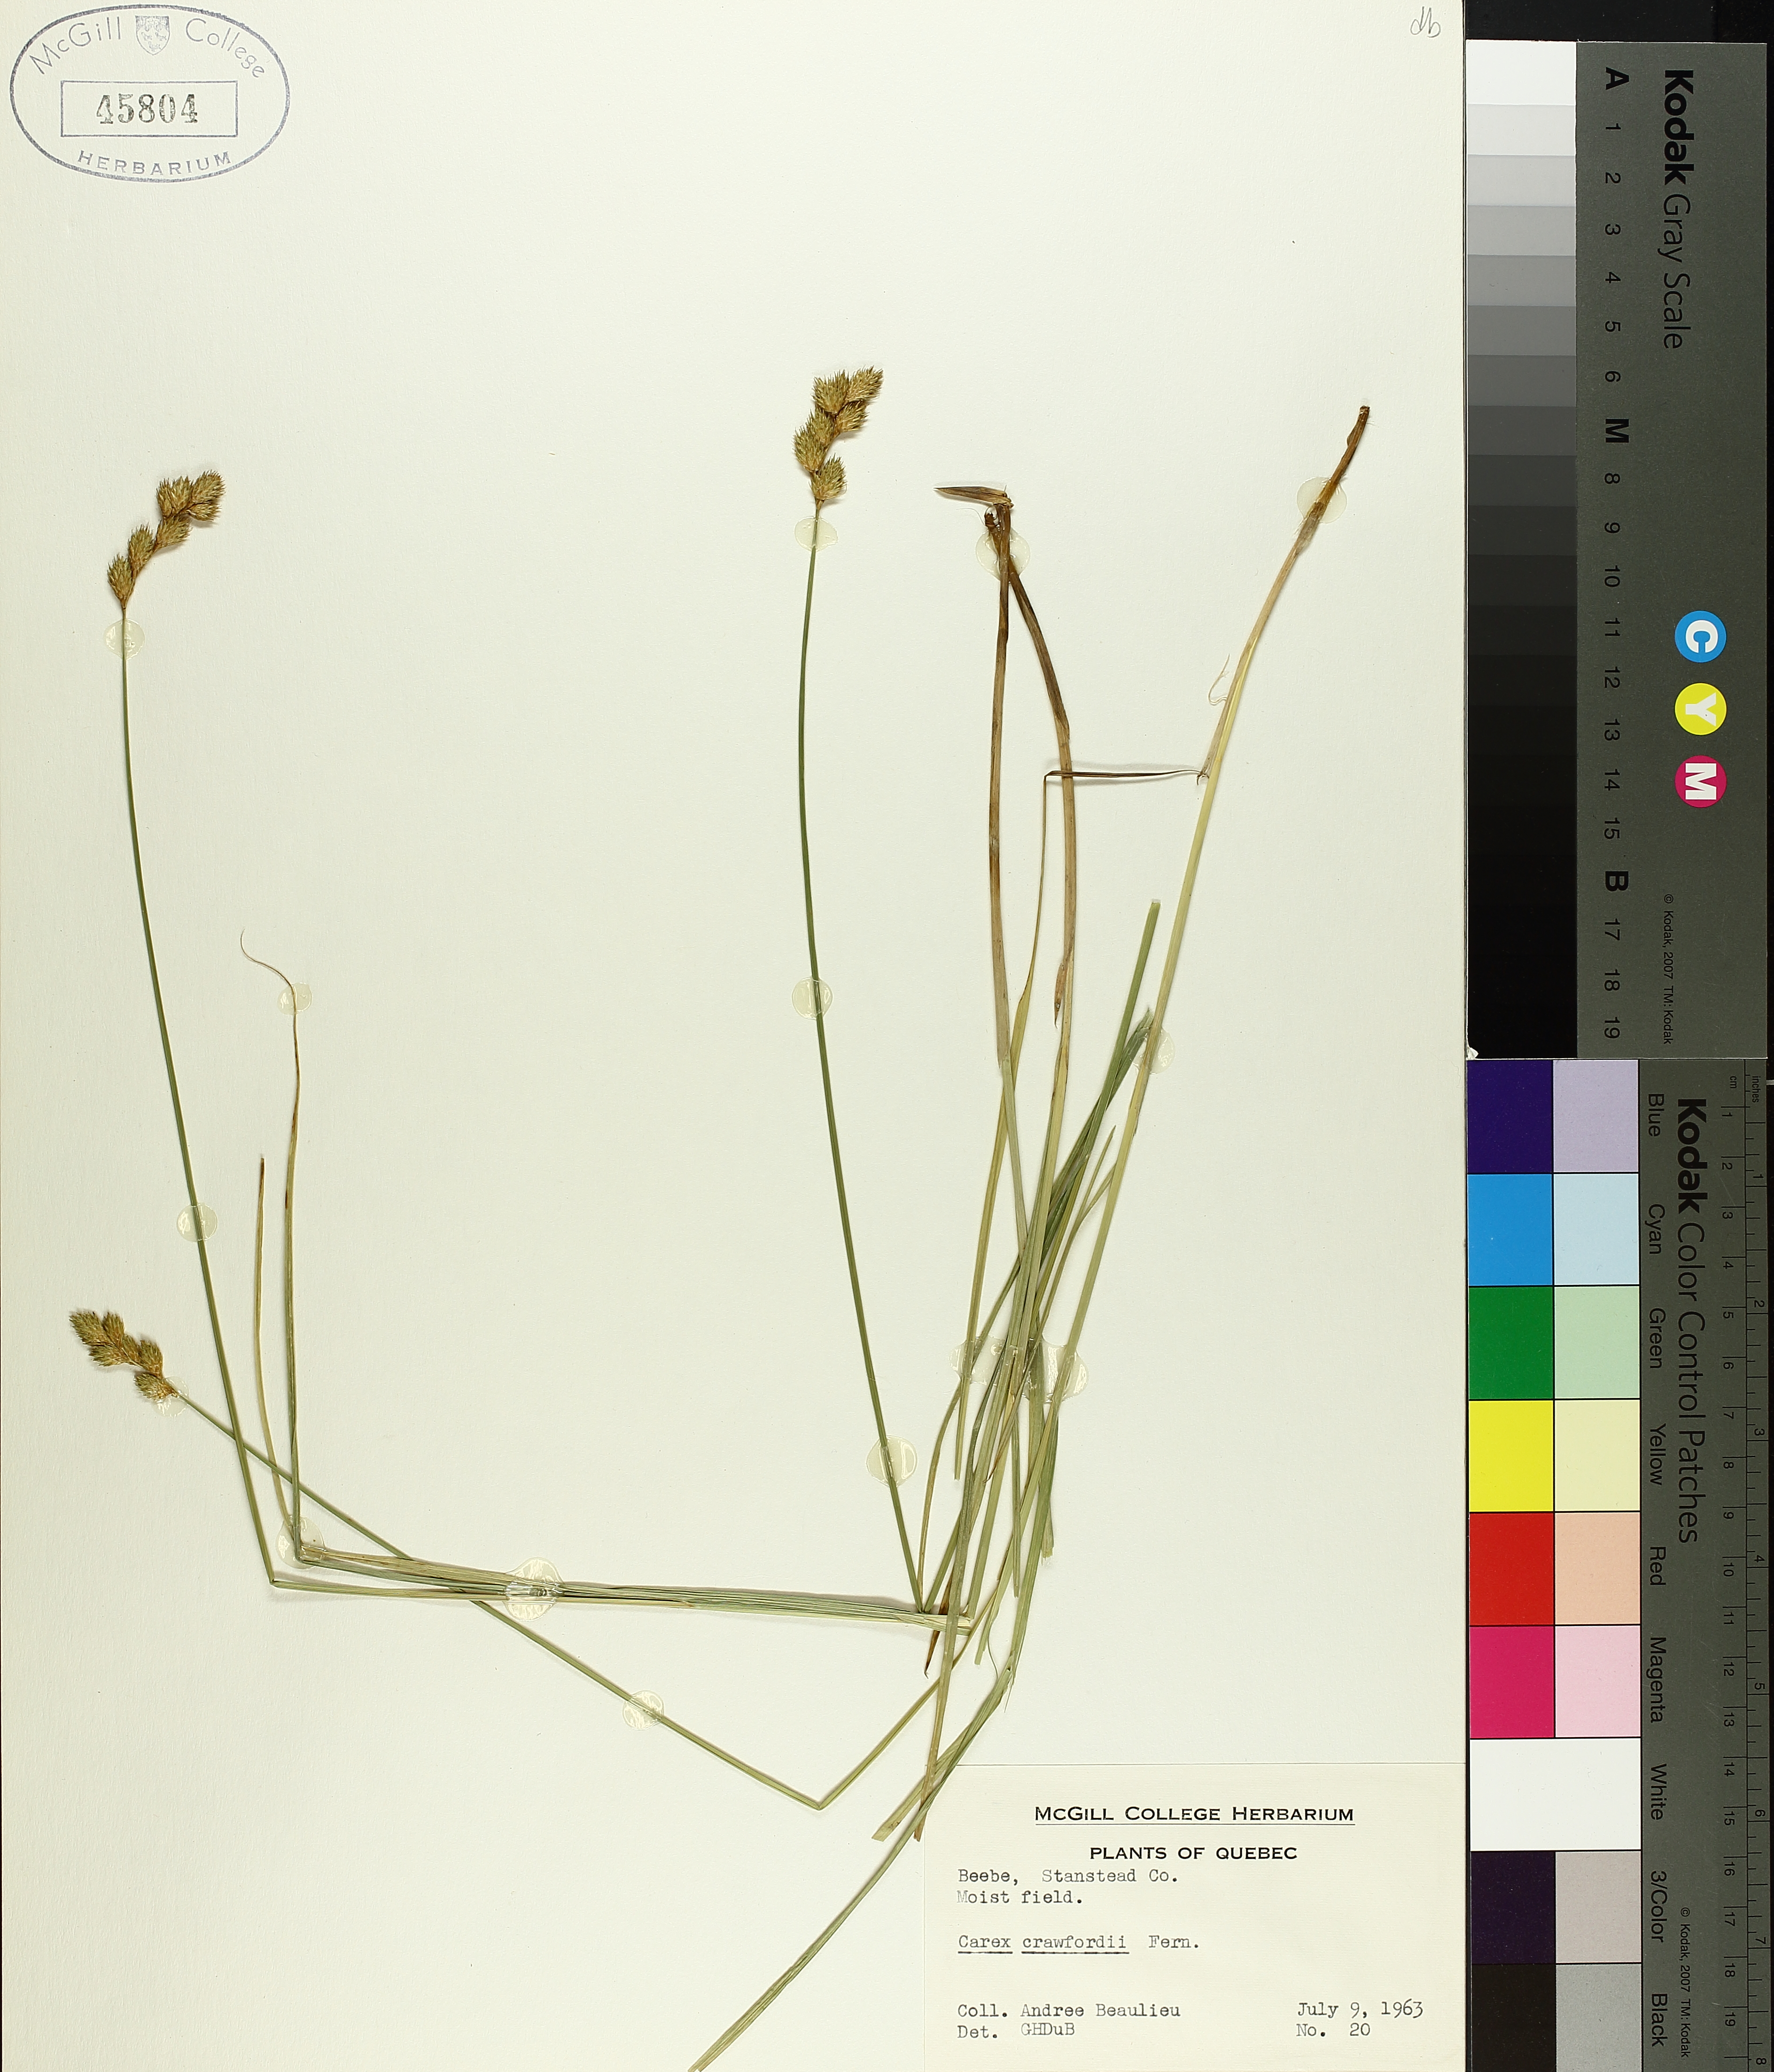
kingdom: Plantae
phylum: Tracheophyta
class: Liliopsida
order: Poales
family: Cyperaceae
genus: Carex
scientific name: Carex crawfordii
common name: Crawford's sedge
